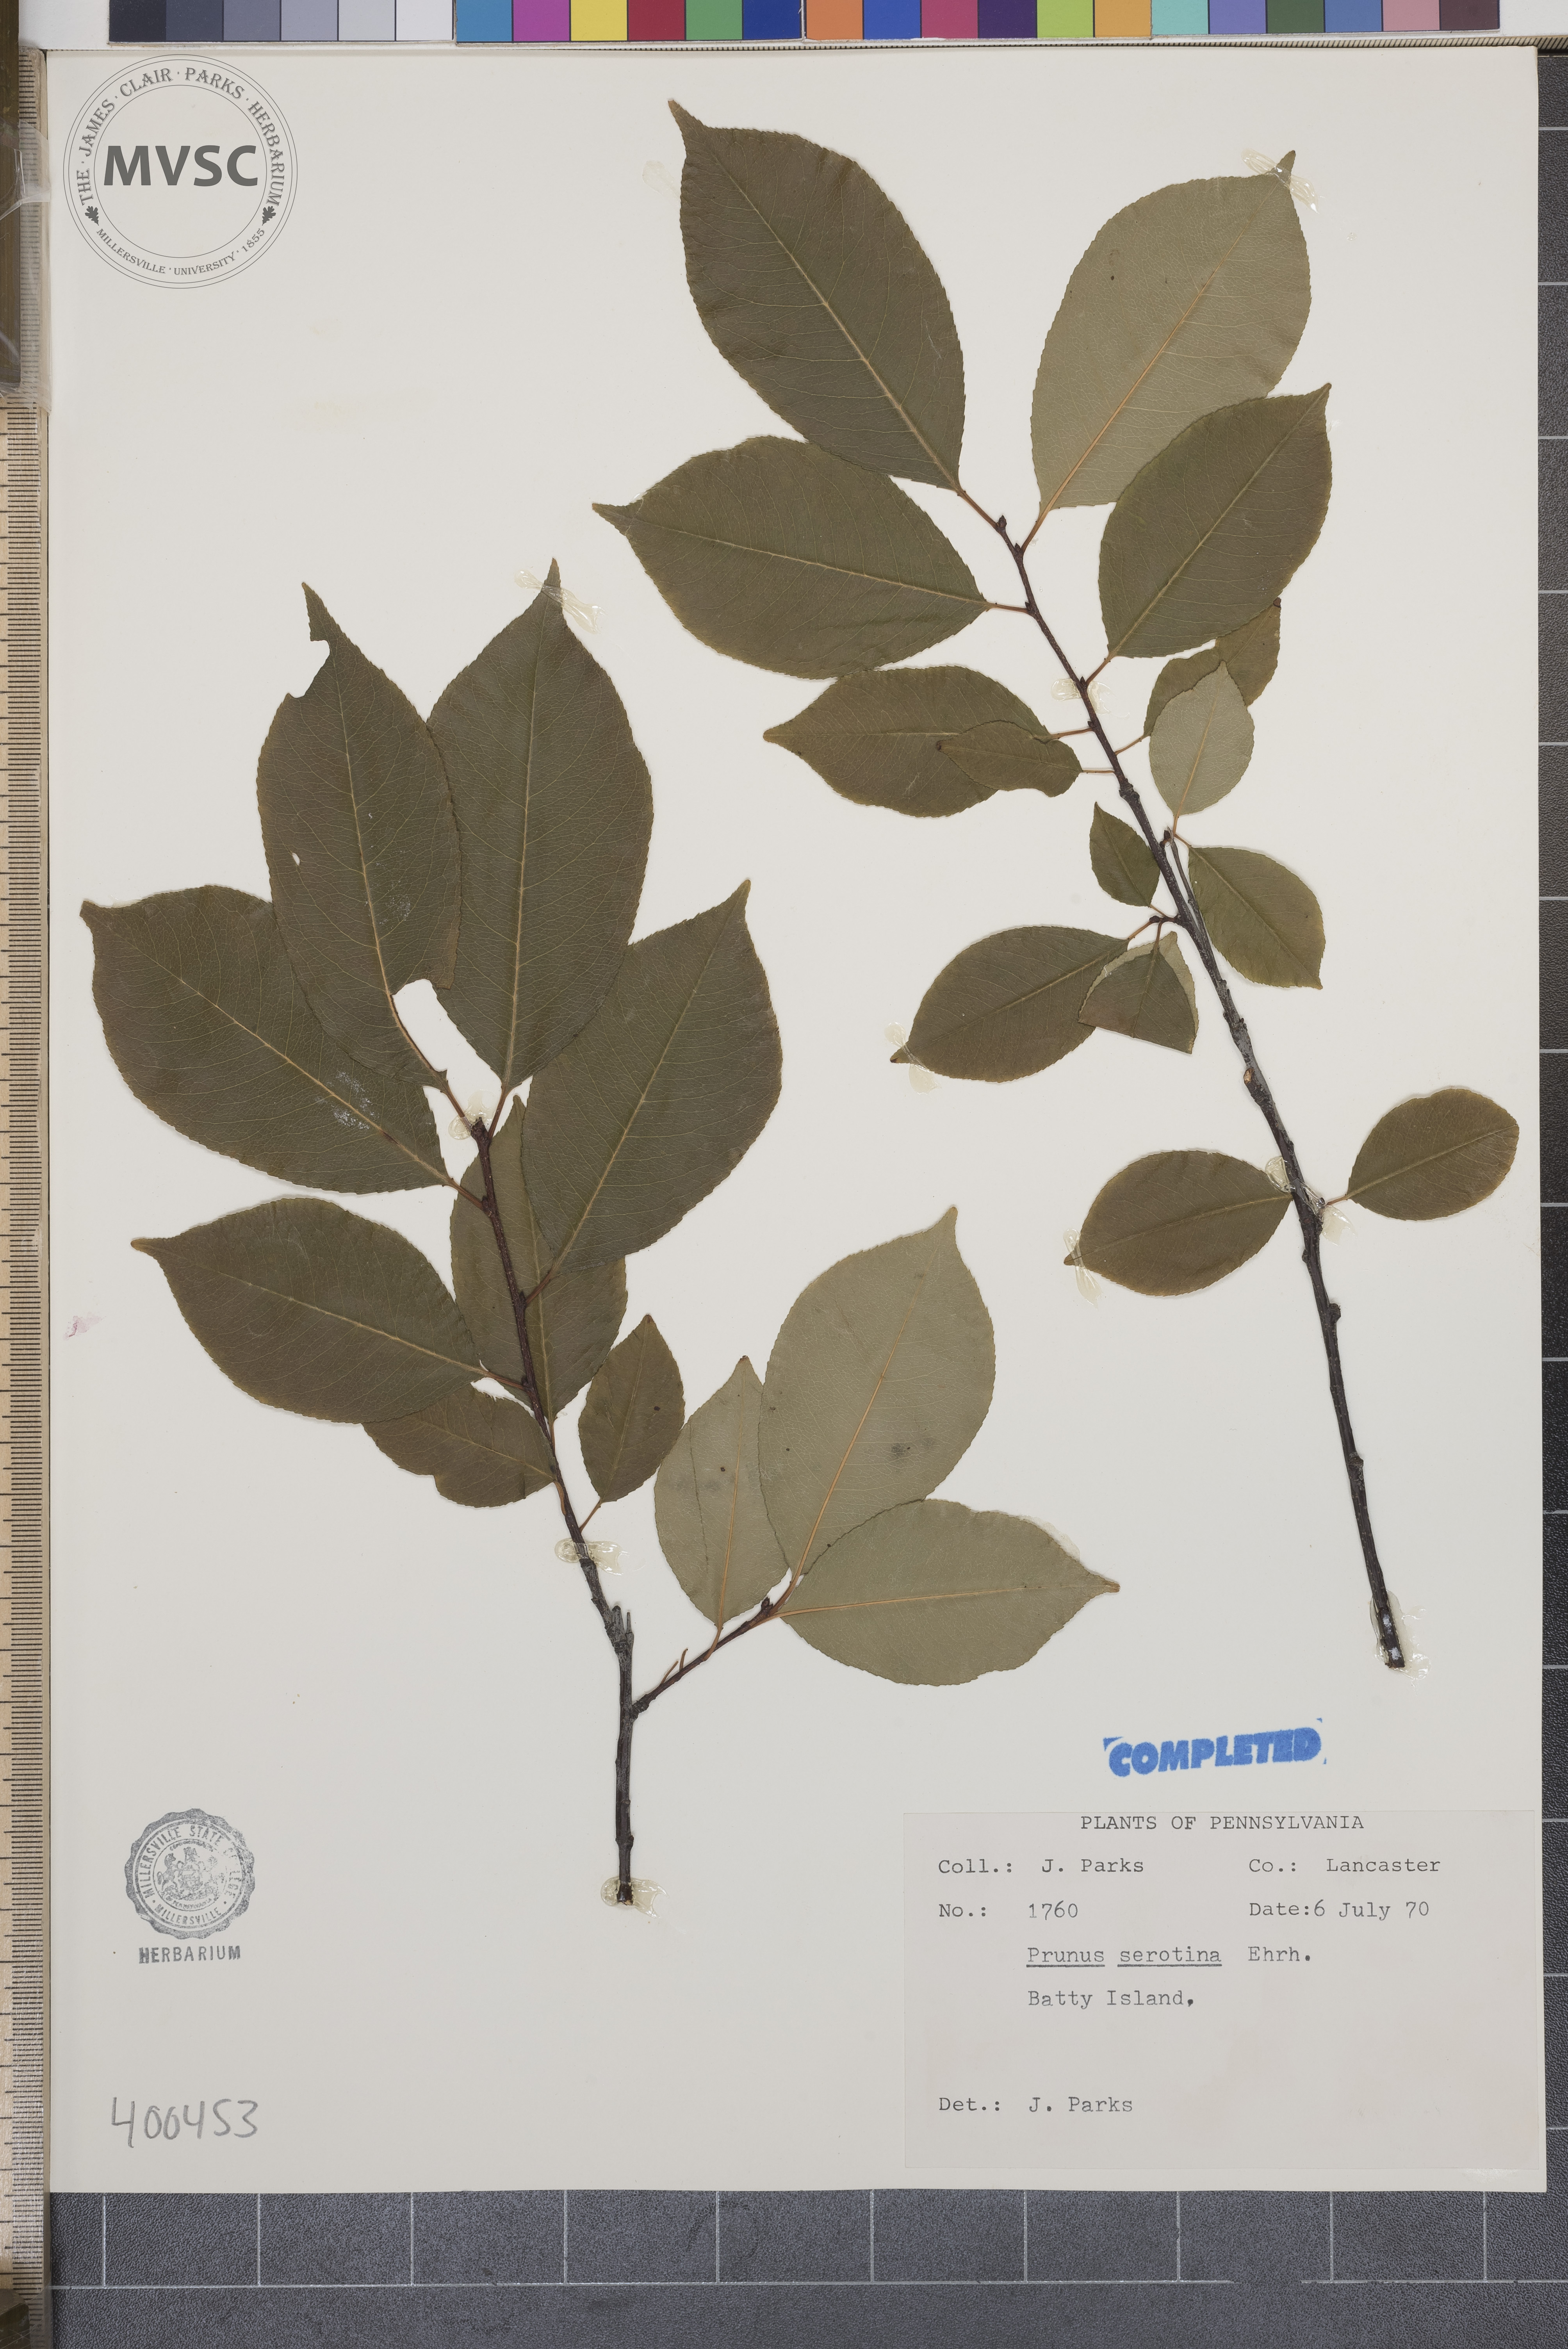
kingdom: Plantae
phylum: Tracheophyta
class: Magnoliopsida
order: Rosales
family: Rosaceae
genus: Prunus
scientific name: Prunus serotina
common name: wild black cherry
